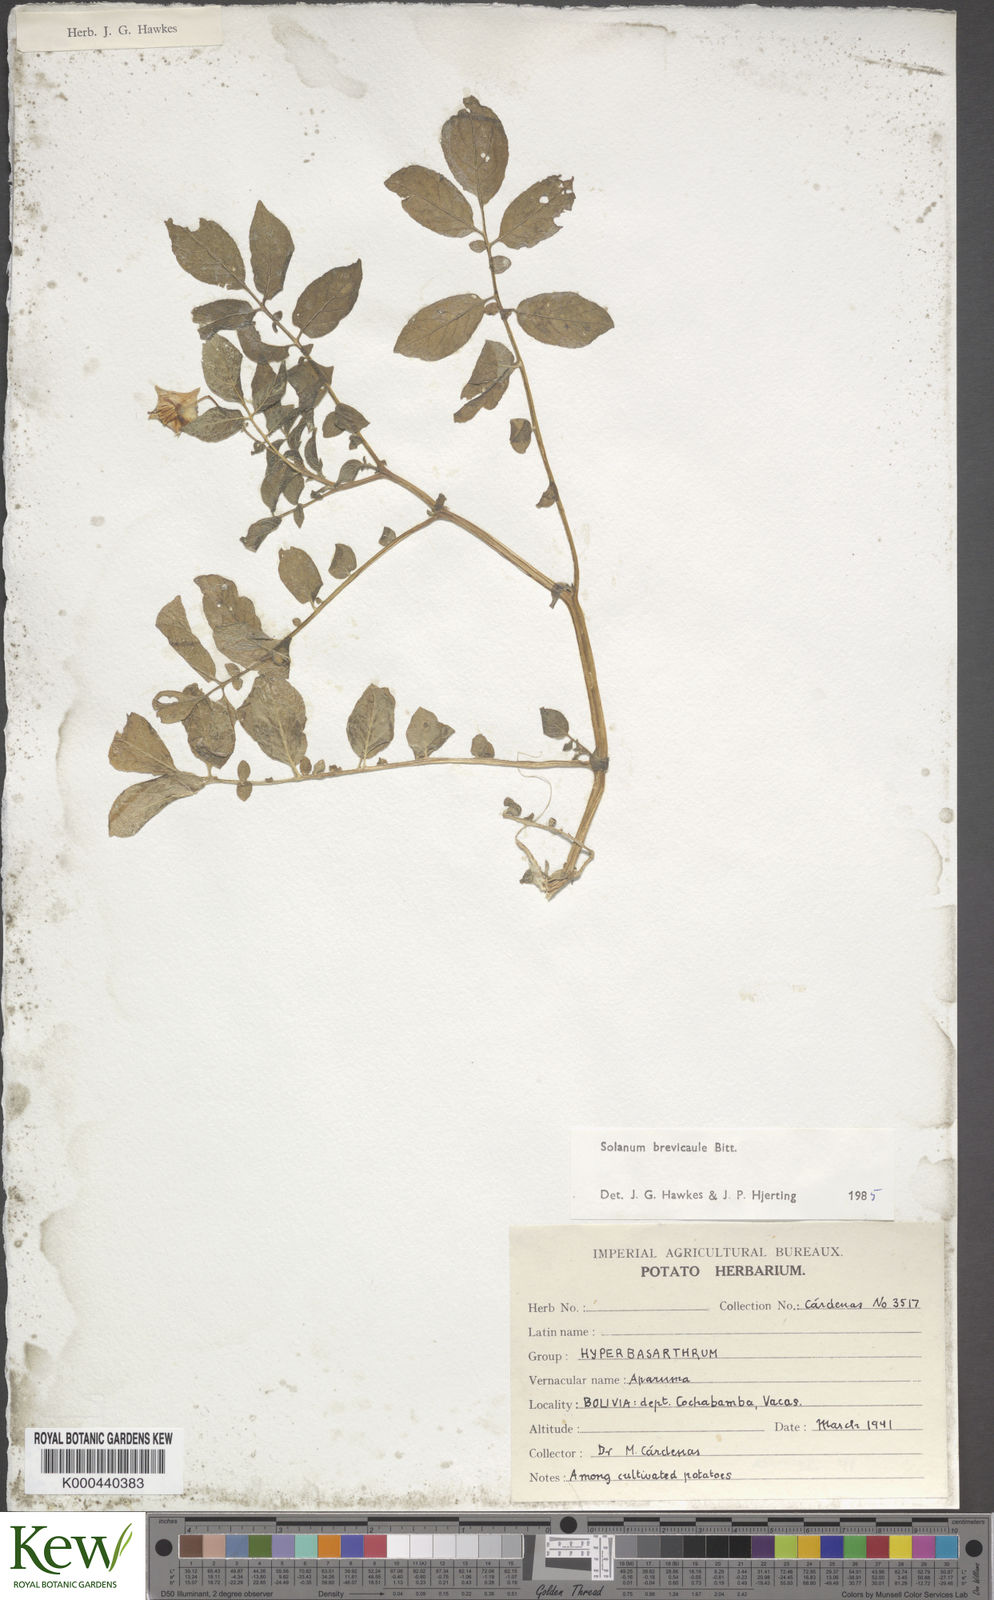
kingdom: Plantae
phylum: Tracheophyta
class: Magnoliopsida
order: Solanales
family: Solanaceae
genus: Solanum
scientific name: Solanum brevicaule
